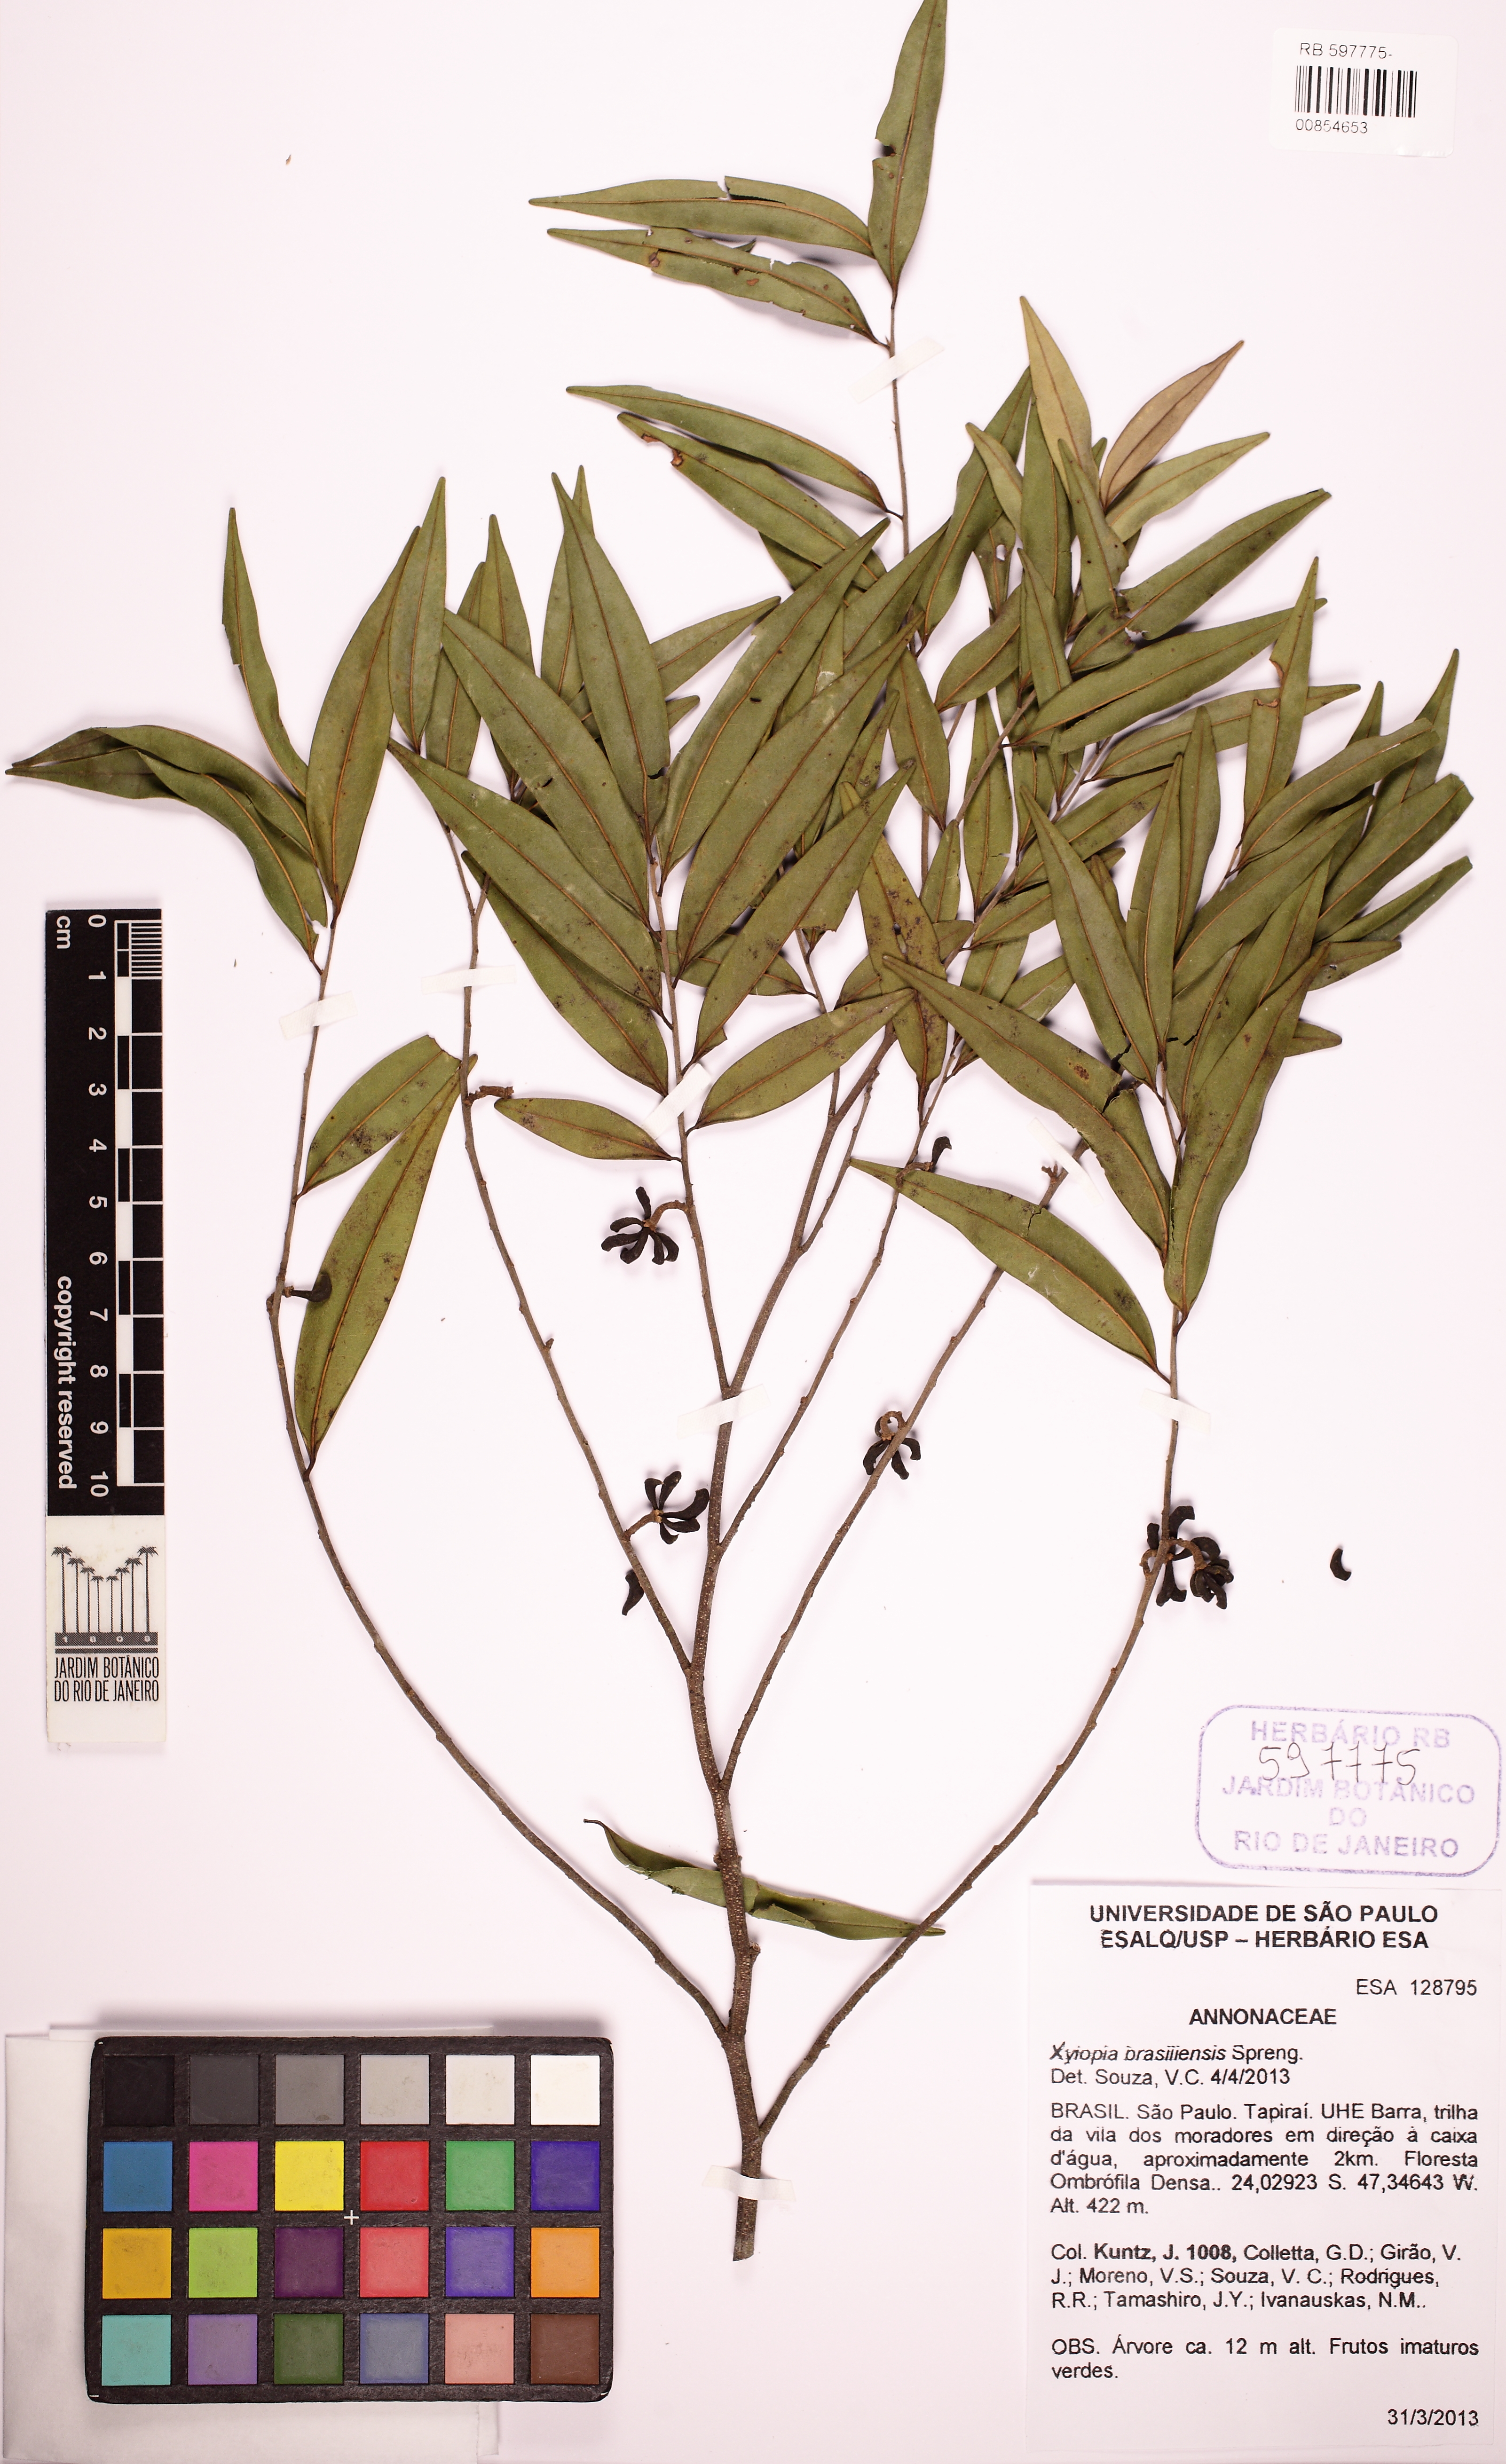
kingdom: Plantae
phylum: Tracheophyta
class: Magnoliopsida
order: Magnoliales
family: Annonaceae
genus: Xylopia
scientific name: Xylopia brasiliensis
